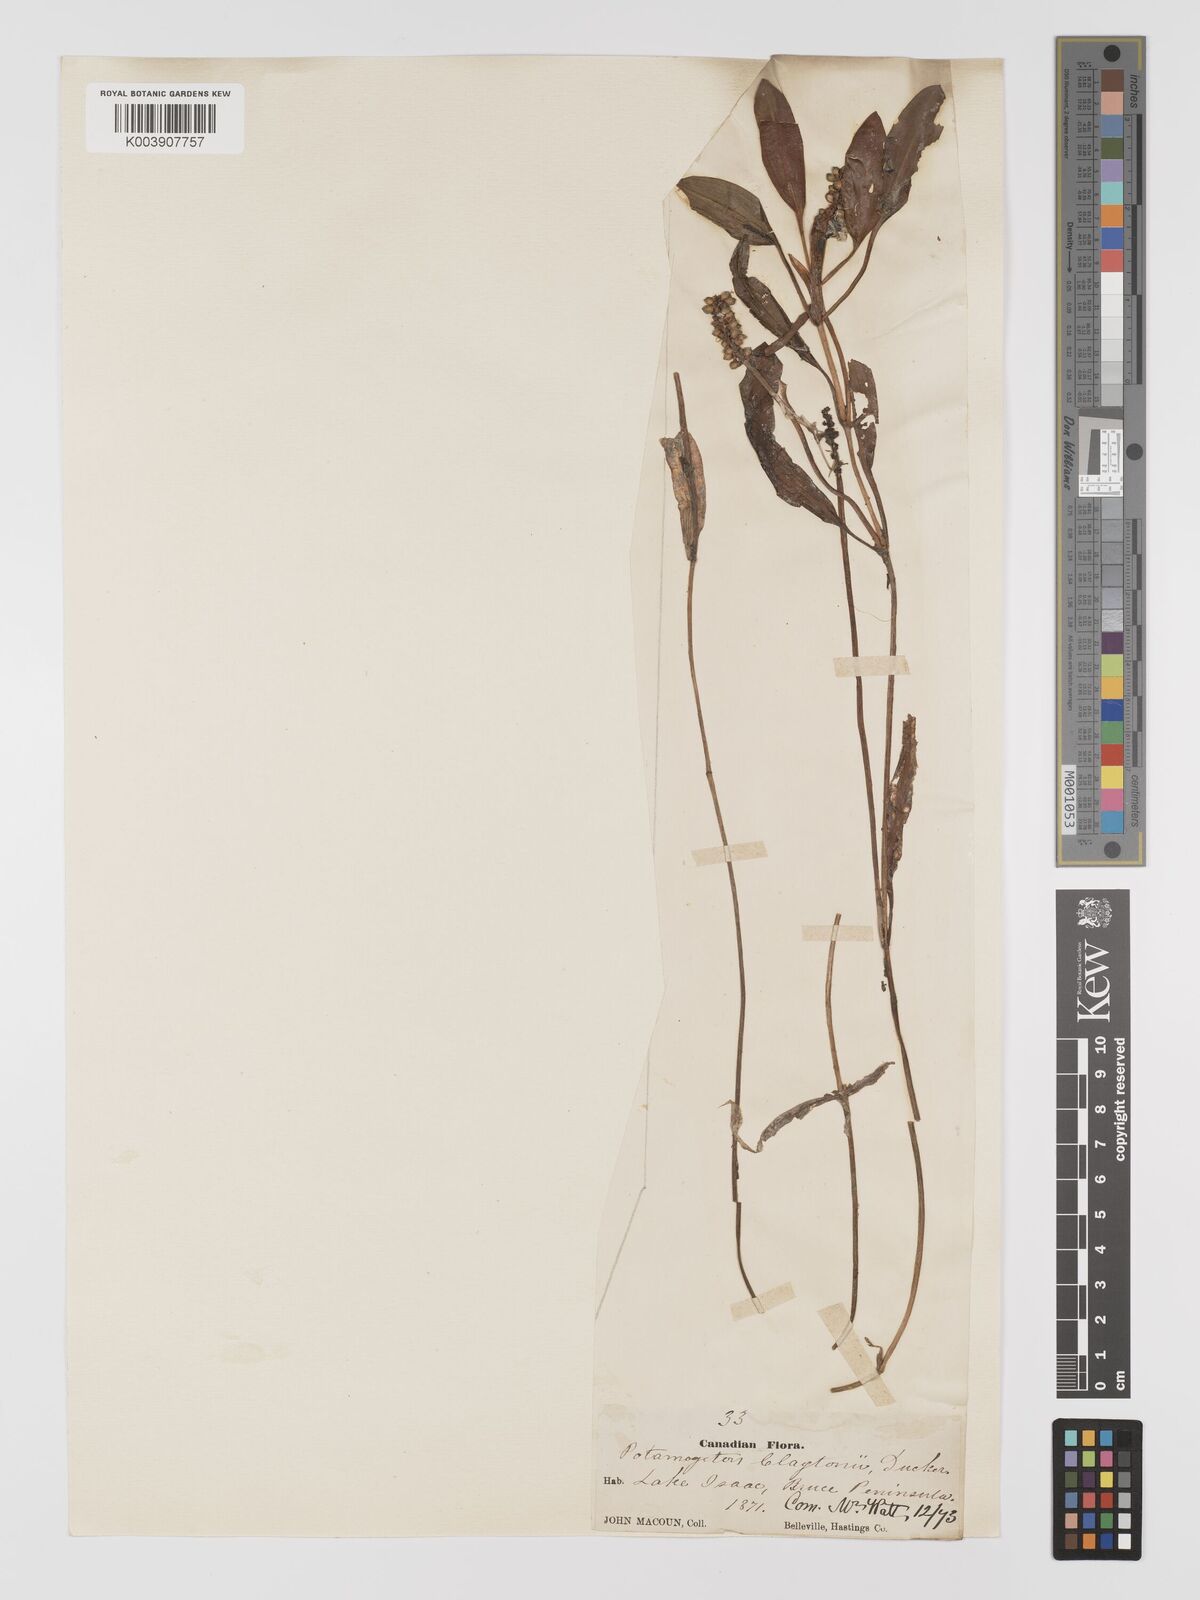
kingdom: Plantae
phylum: Tracheophyta
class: Liliopsida
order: Alismatales
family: Potamogetonaceae
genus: Potamogeton
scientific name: Potamogeton gramineus
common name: Various-leaved pondweed
